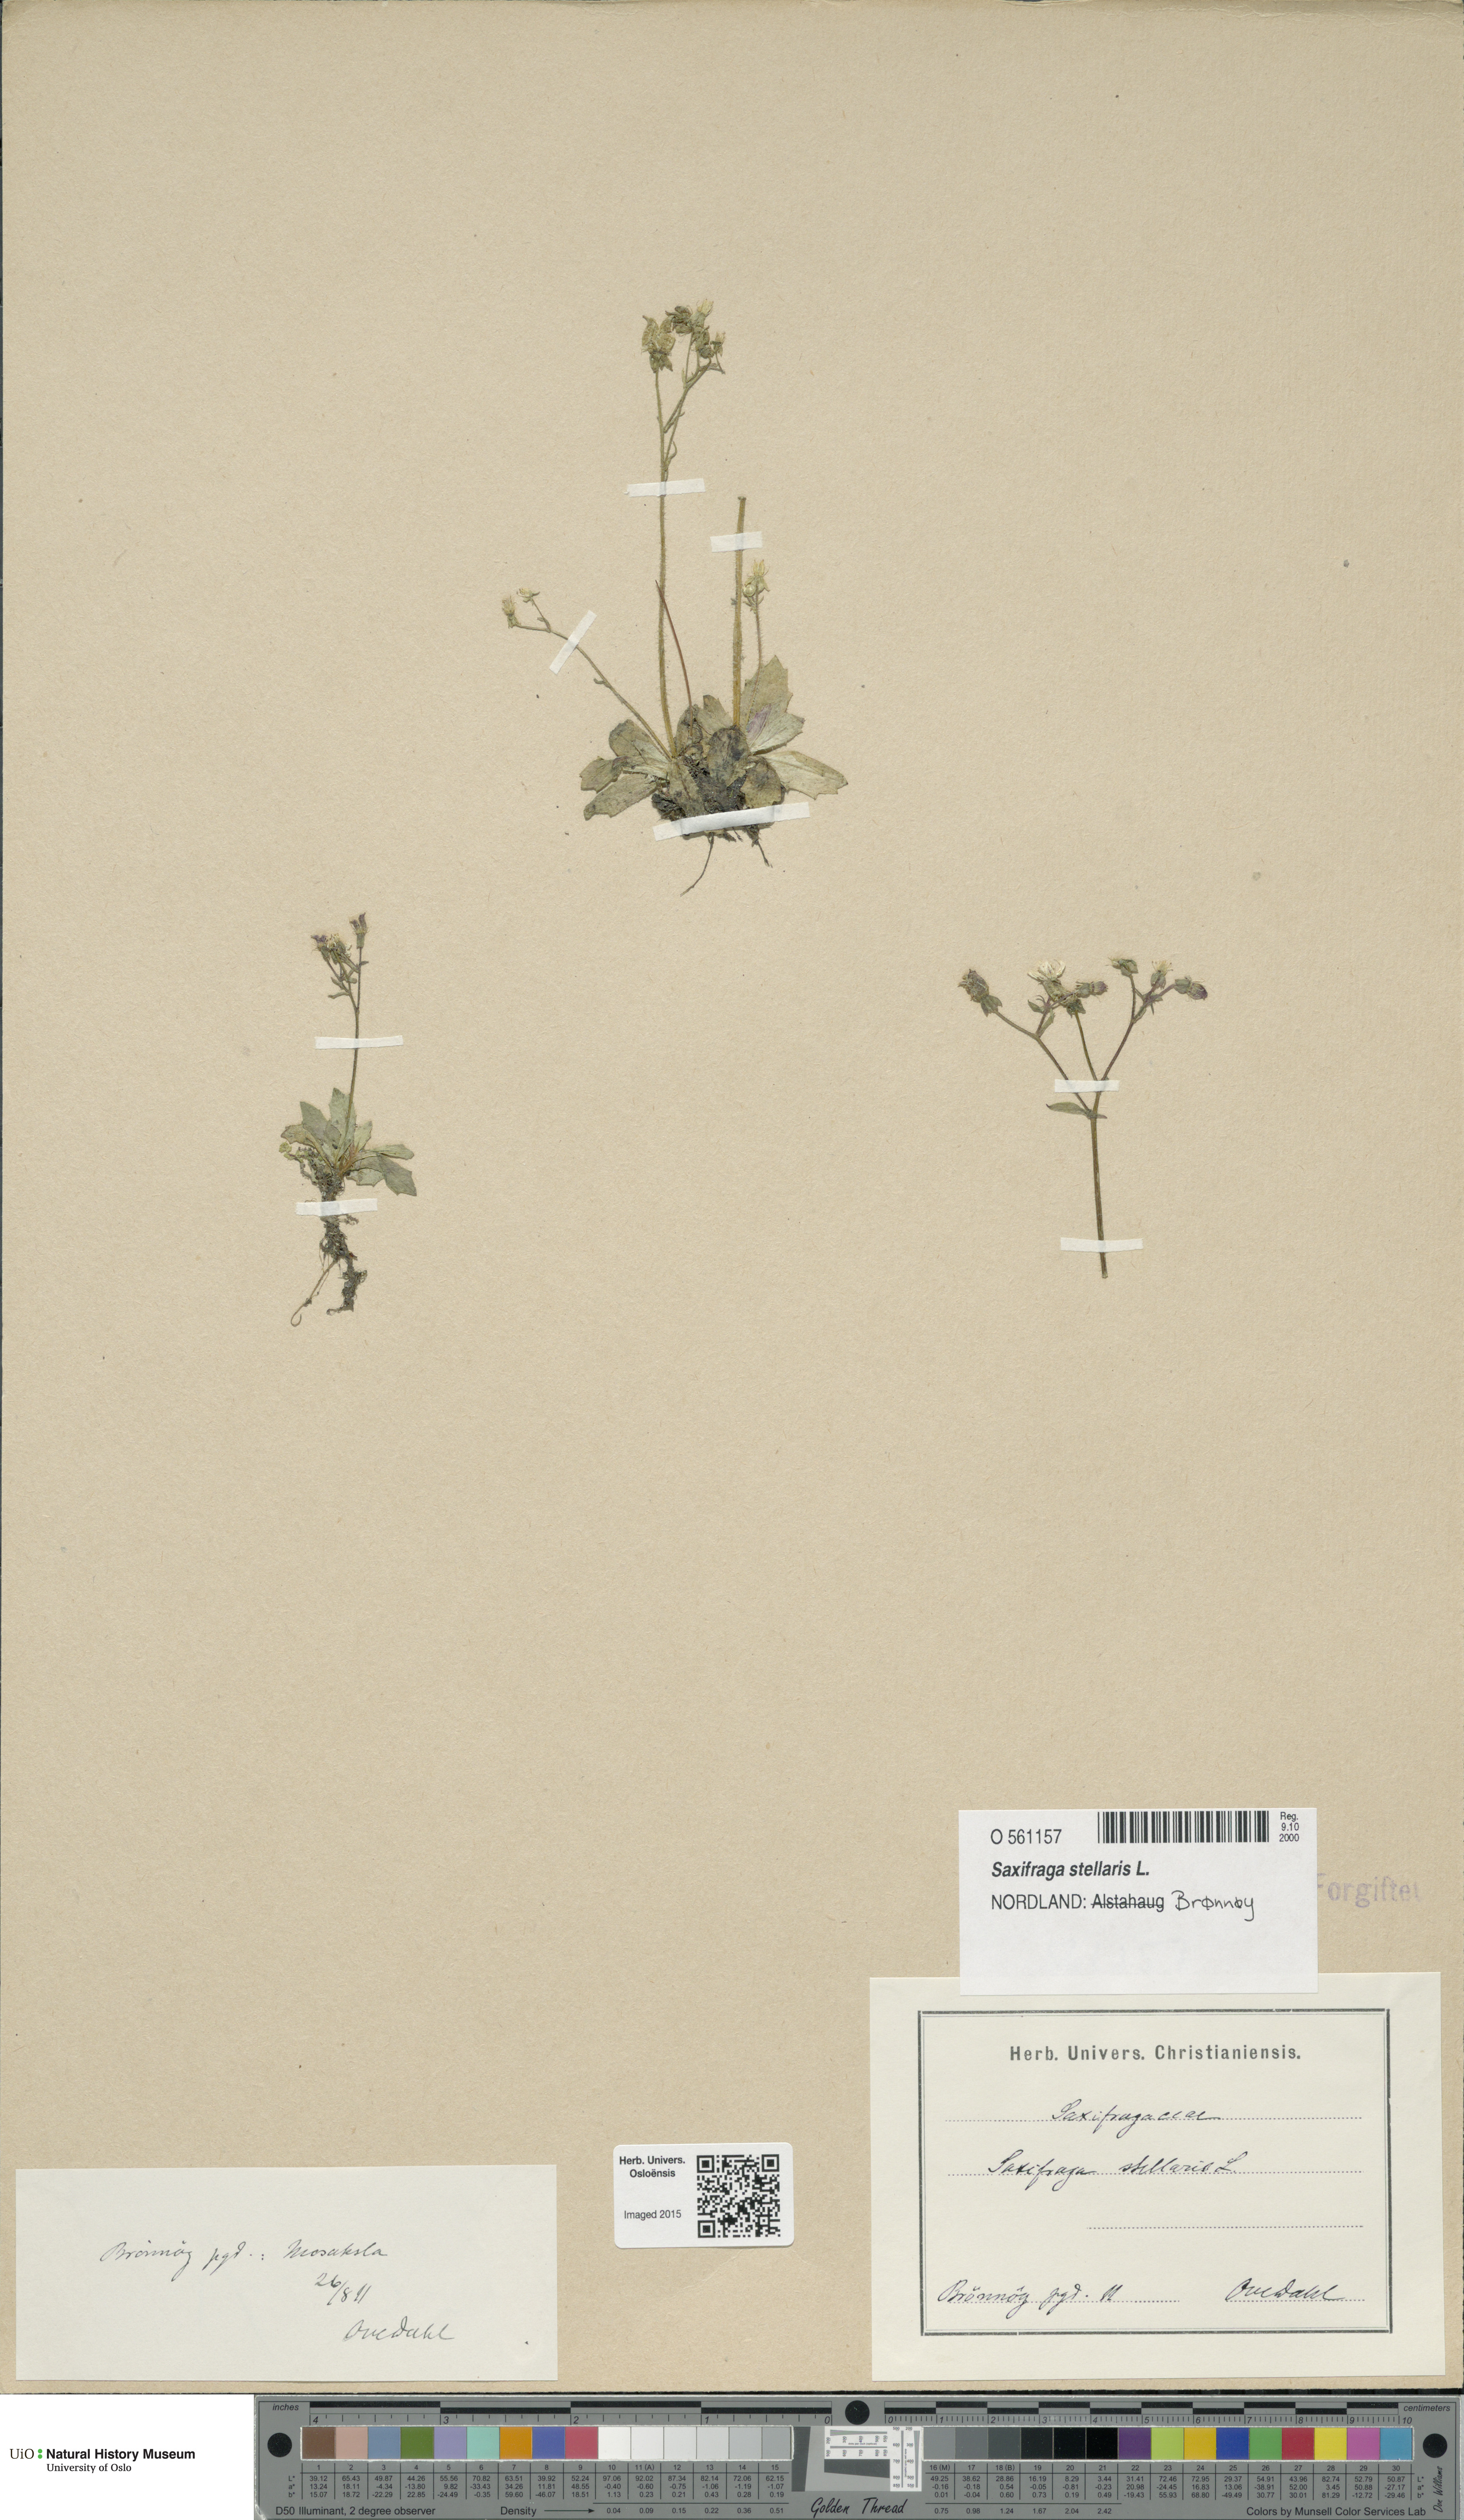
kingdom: Plantae
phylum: Tracheophyta
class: Magnoliopsida
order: Saxifragales
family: Saxifragaceae
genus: Micranthes
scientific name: Micranthes stellaris
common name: Starry saxifrage
